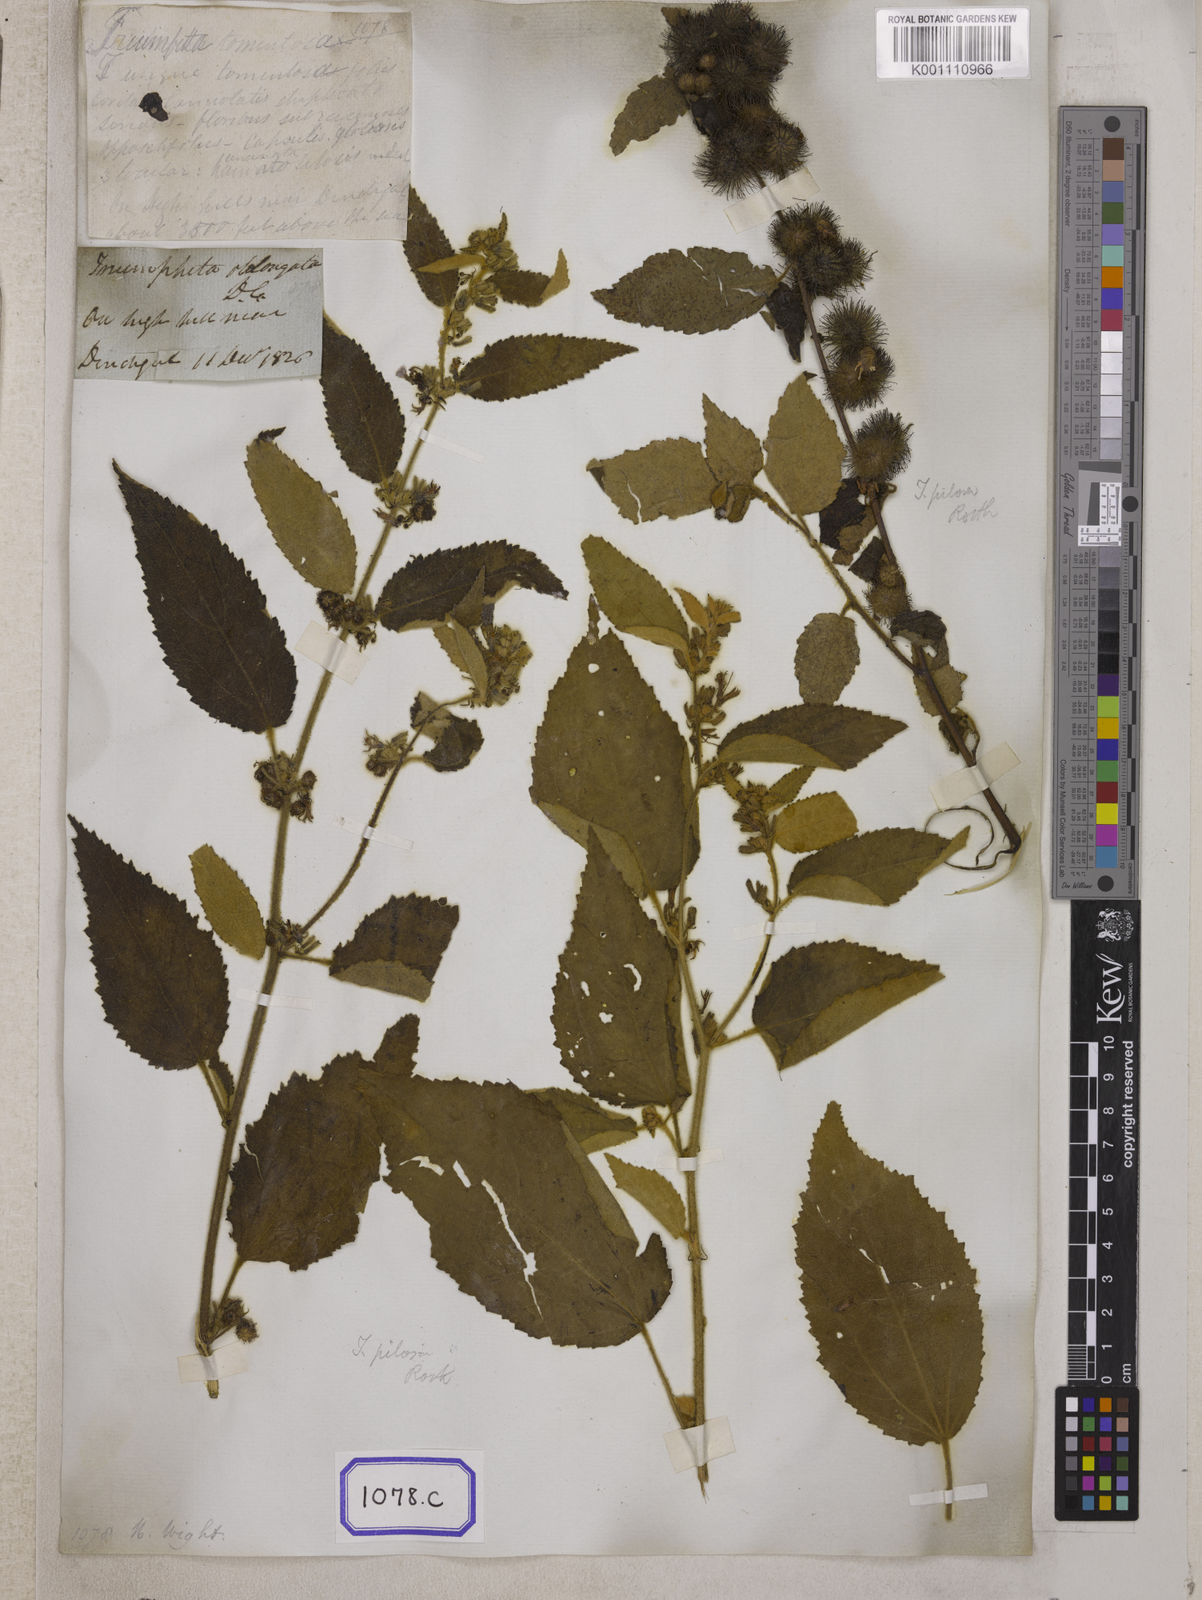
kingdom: Plantae
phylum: Tracheophyta
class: Magnoliopsida
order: Malvales
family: Malvaceae
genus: Triumfetta
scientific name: Triumfetta
